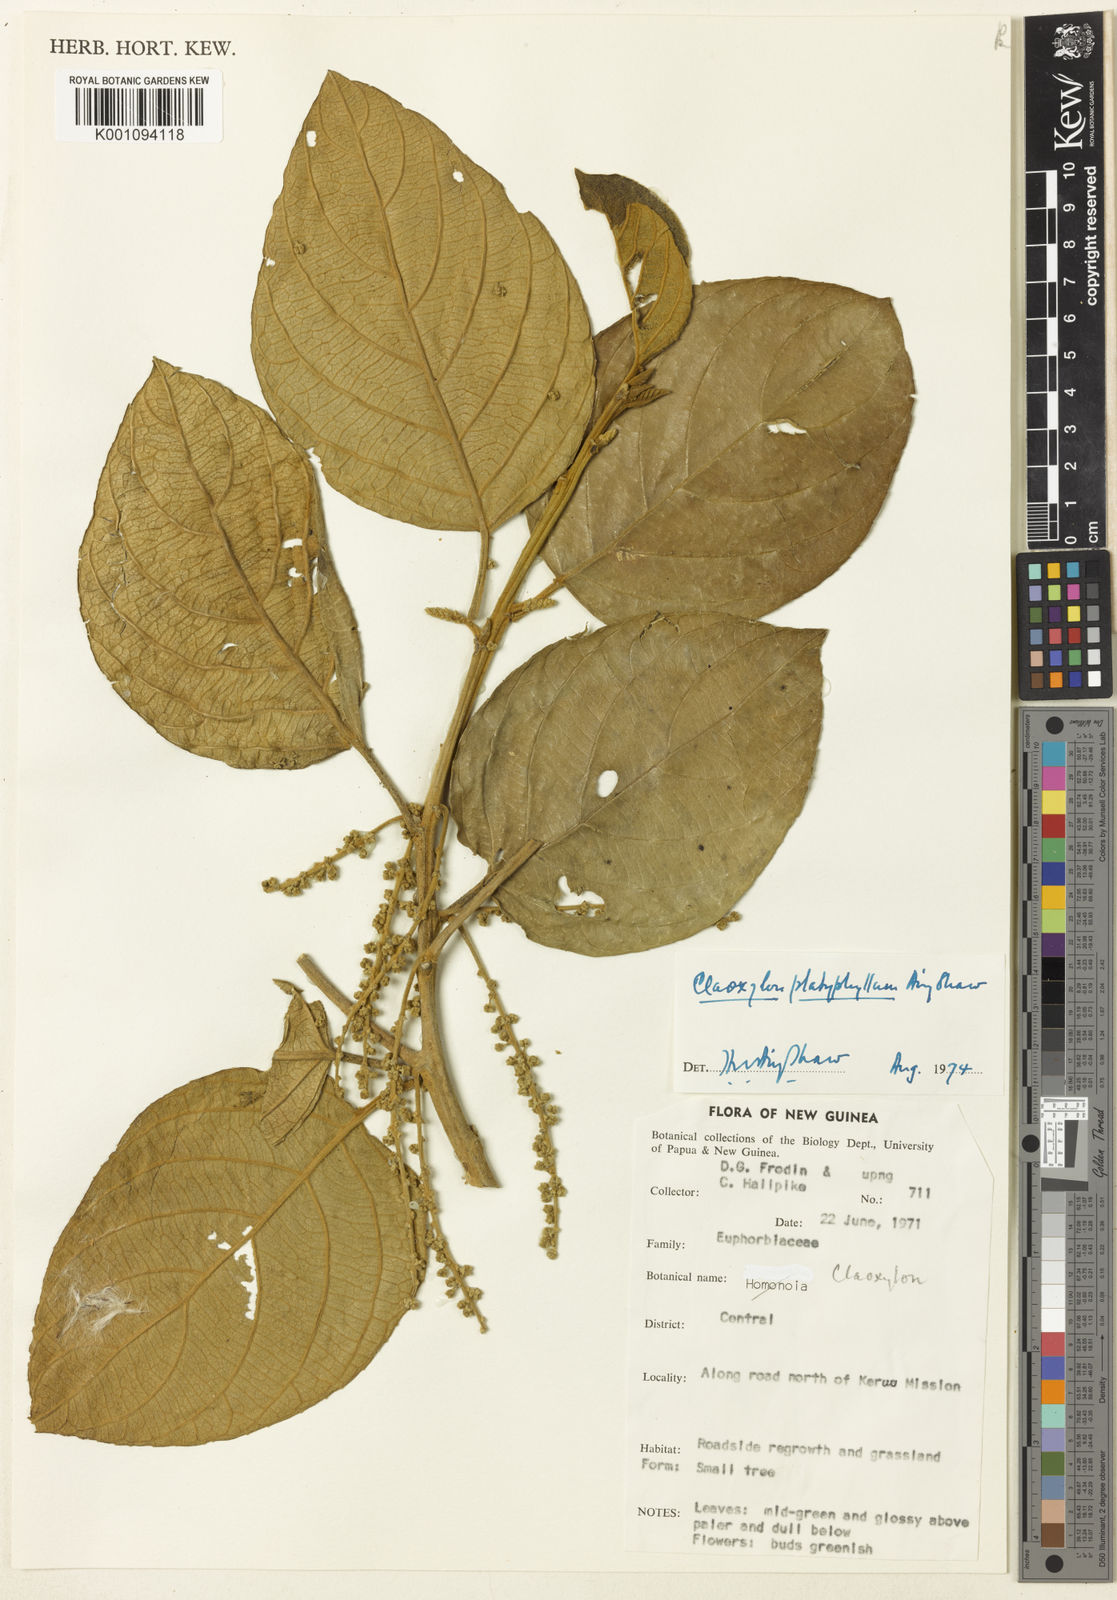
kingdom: Plantae
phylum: Tracheophyta
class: Magnoliopsida
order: Malpighiales
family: Euphorbiaceae
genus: Claoxylon
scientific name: Claoxylon platyphyllum
